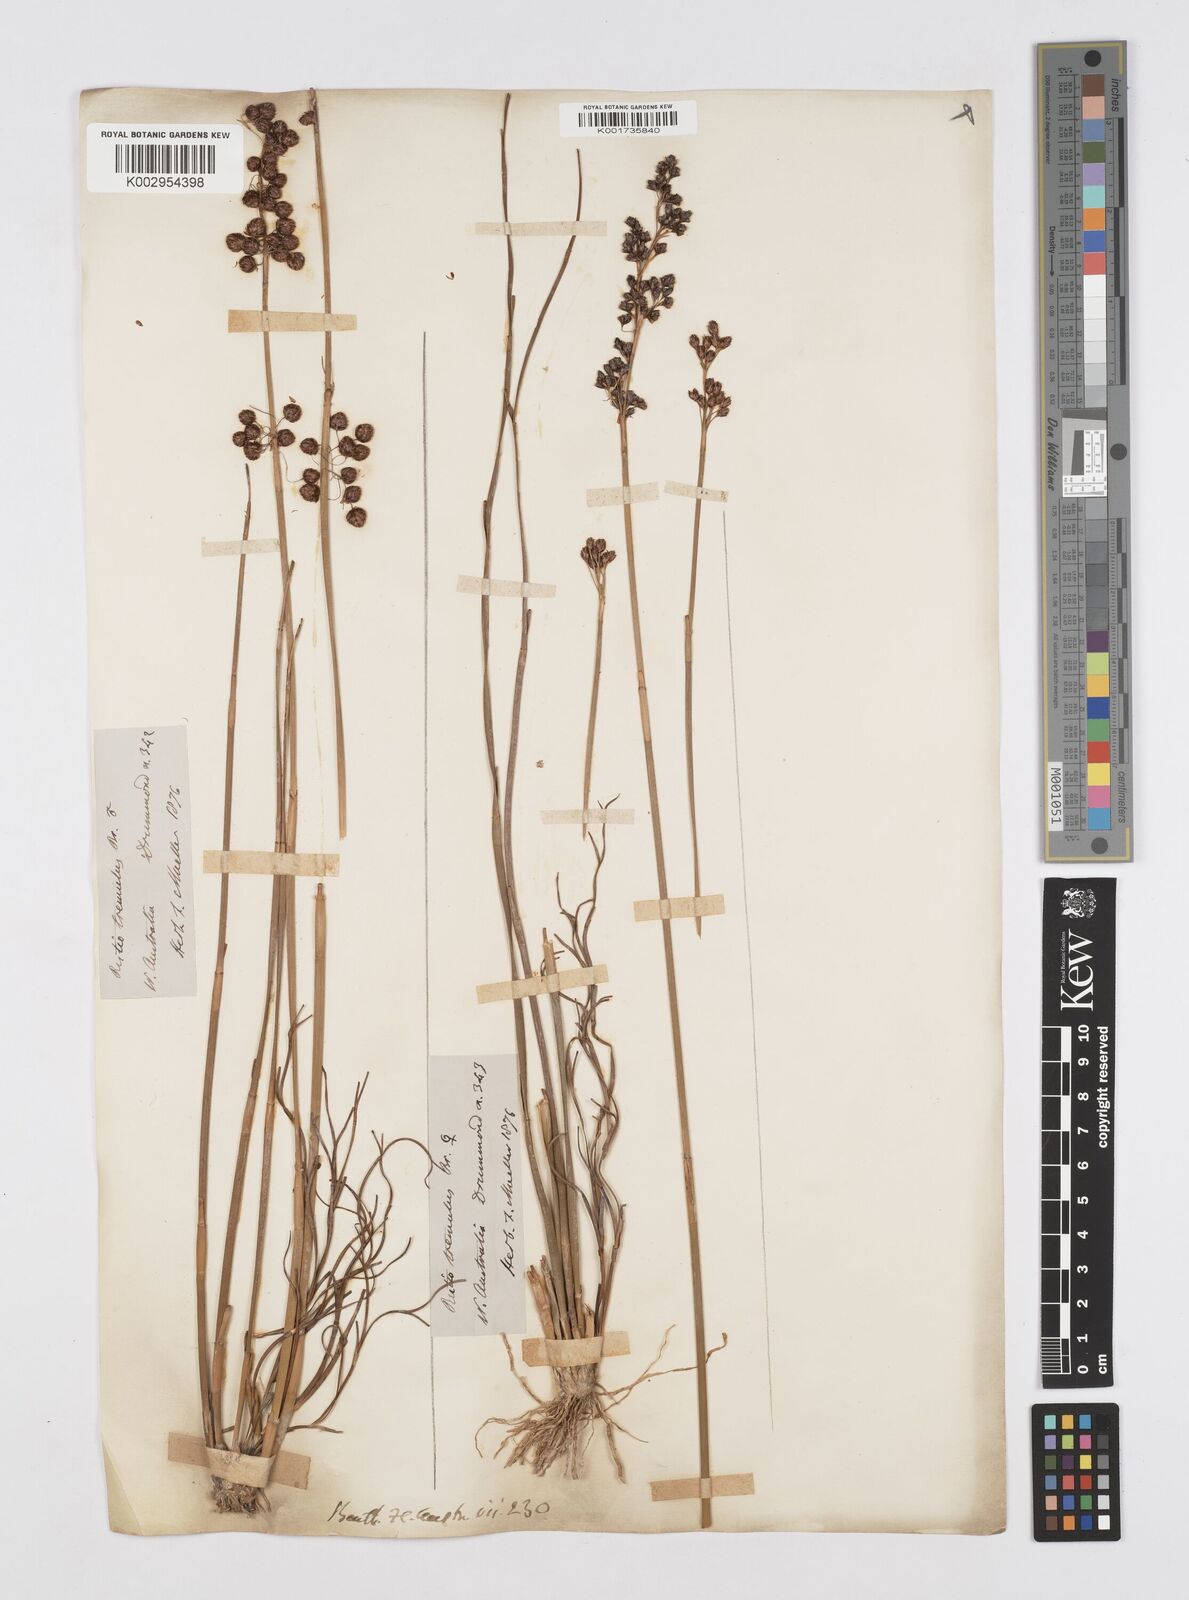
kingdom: Plantae
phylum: Tracheophyta
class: Liliopsida
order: Poales
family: Restionaceae
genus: Tremulina
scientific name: Tremulina tremula
